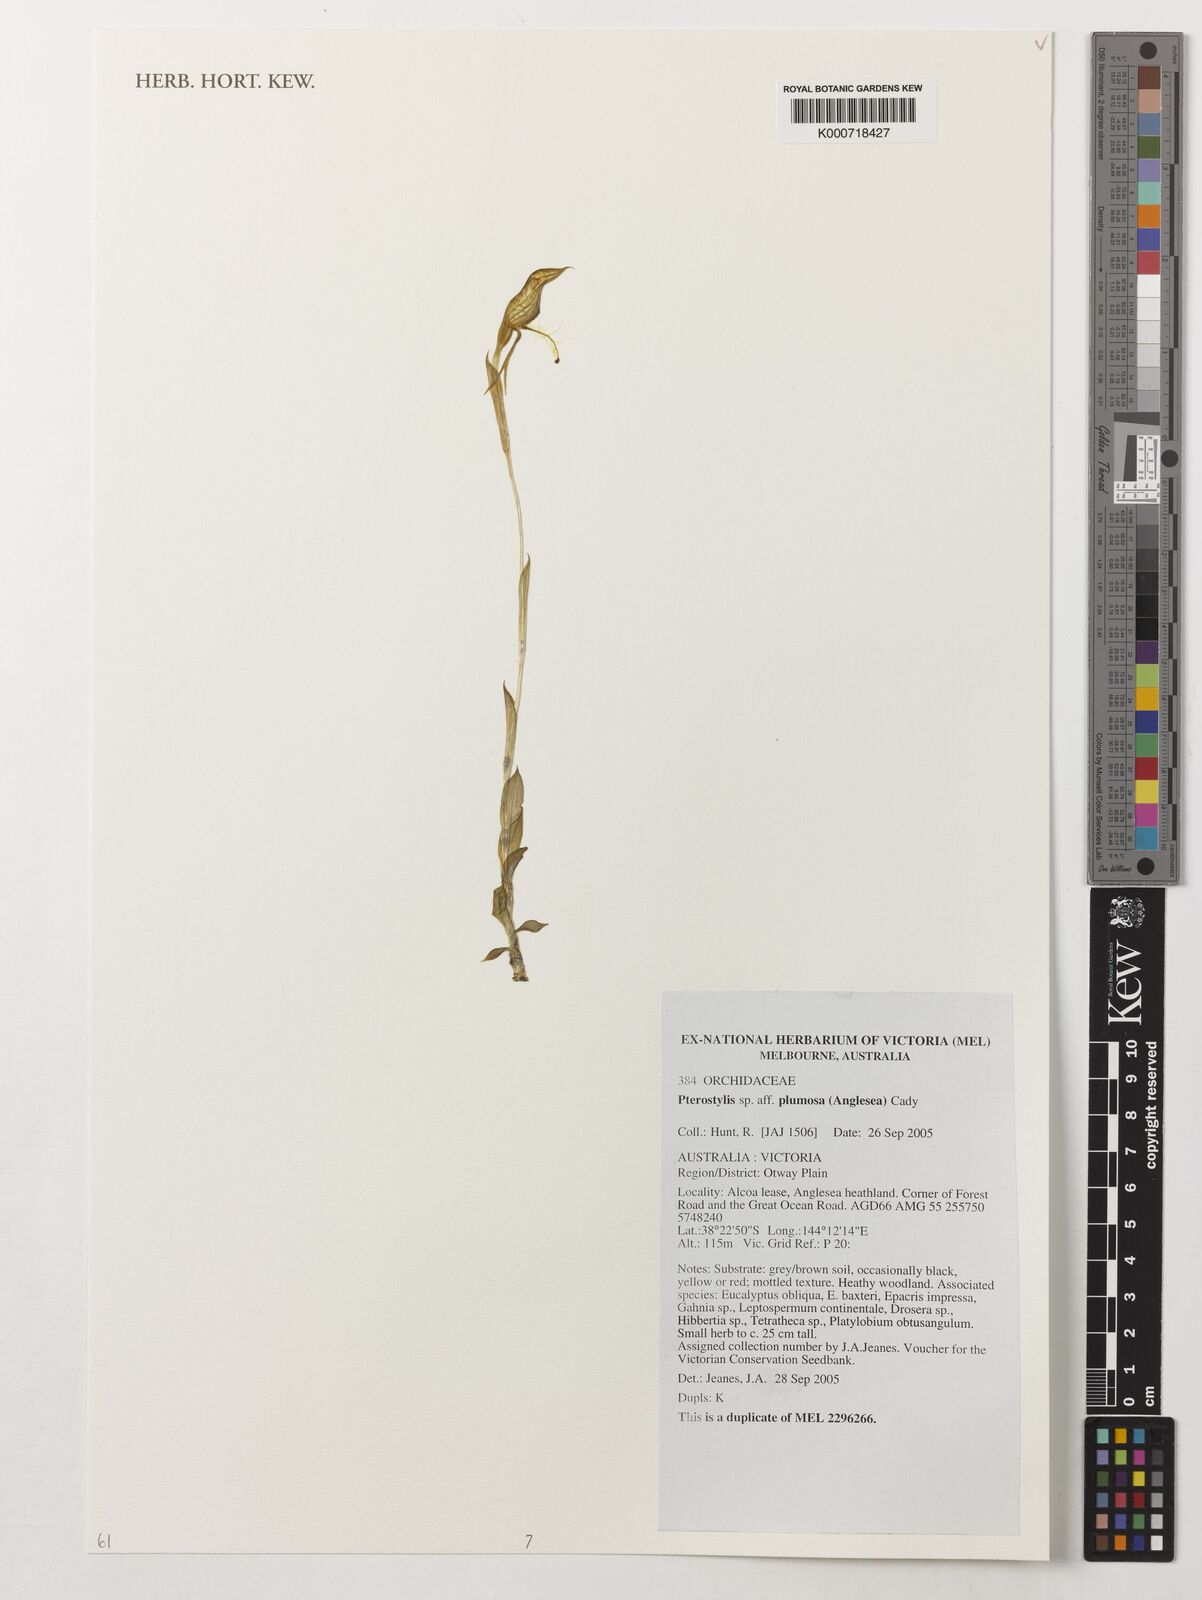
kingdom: Plantae
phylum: Tracheophyta
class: Liliopsida
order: Asparagales
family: Orchidaceae
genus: Pterostylis
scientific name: Pterostylis plumosa
